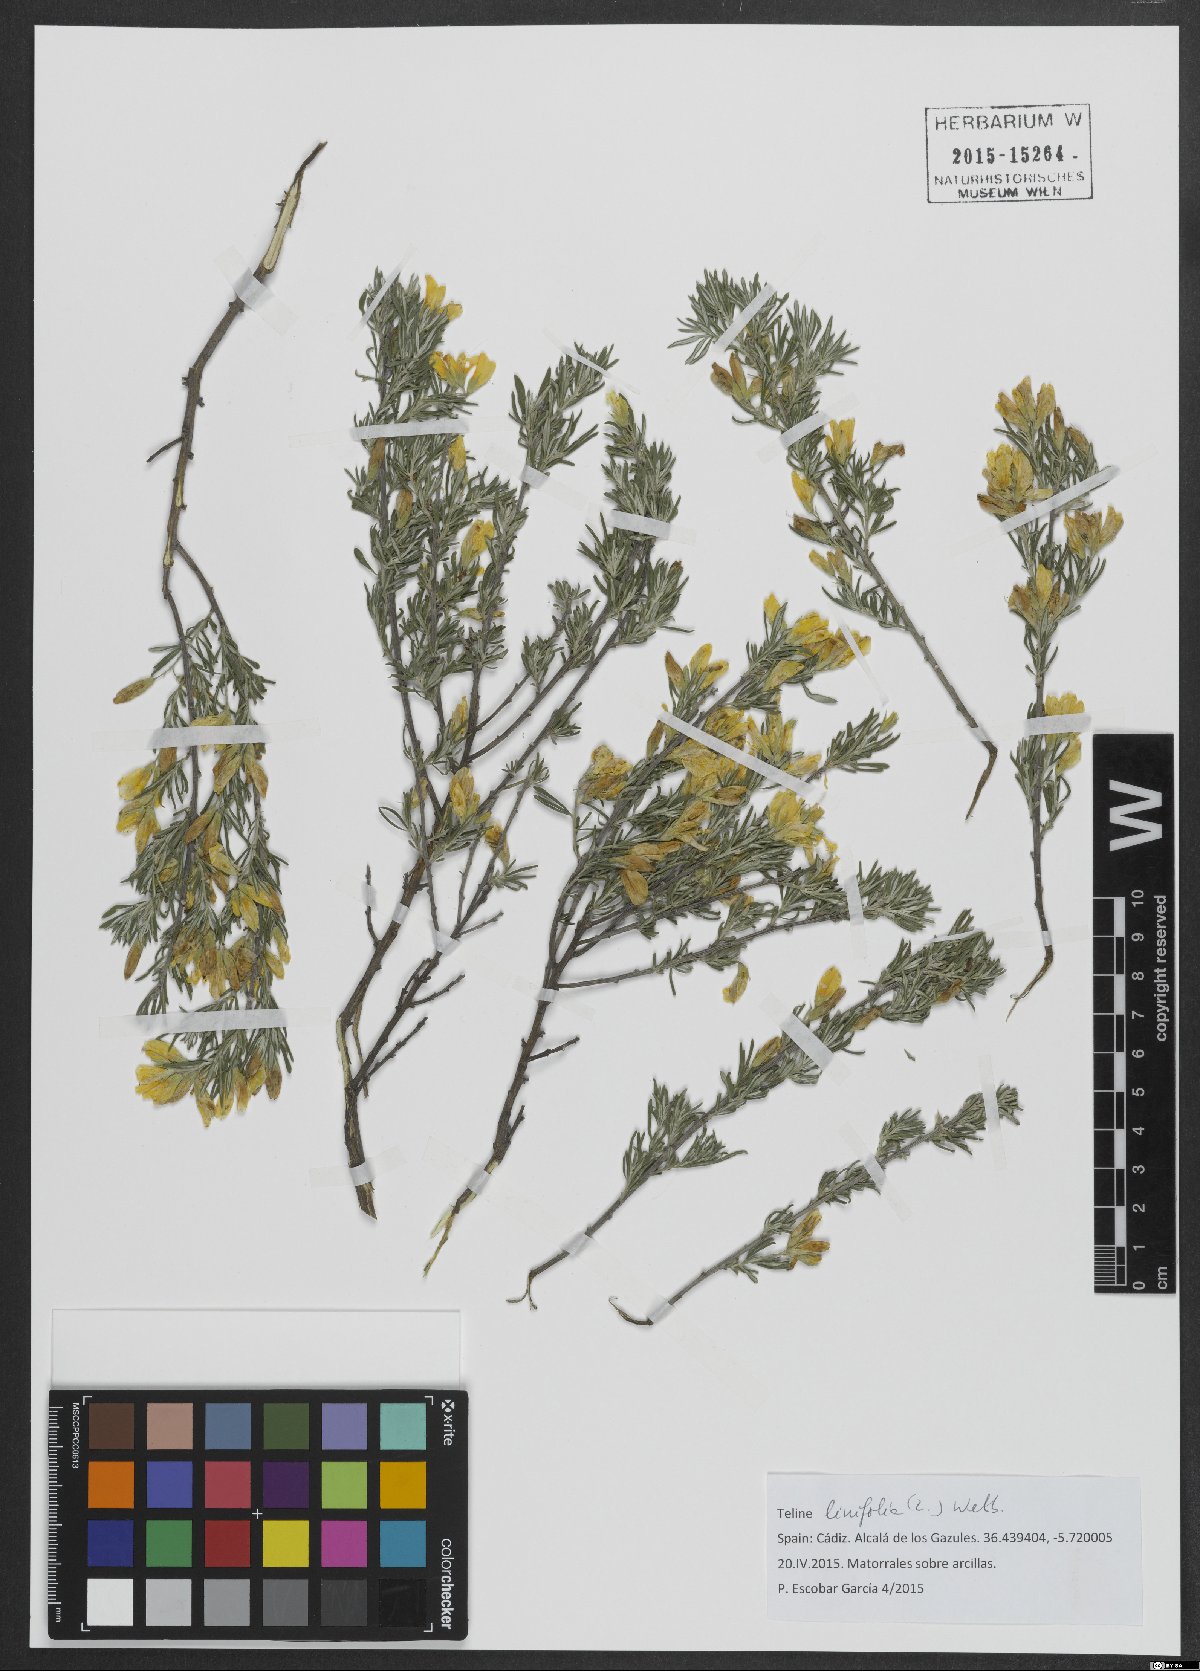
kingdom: Plantae
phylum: Tracheophyta
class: Magnoliopsida
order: Fabales
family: Fabaceae
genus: Genista
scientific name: Genista linifolia
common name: Mediterranean broom
